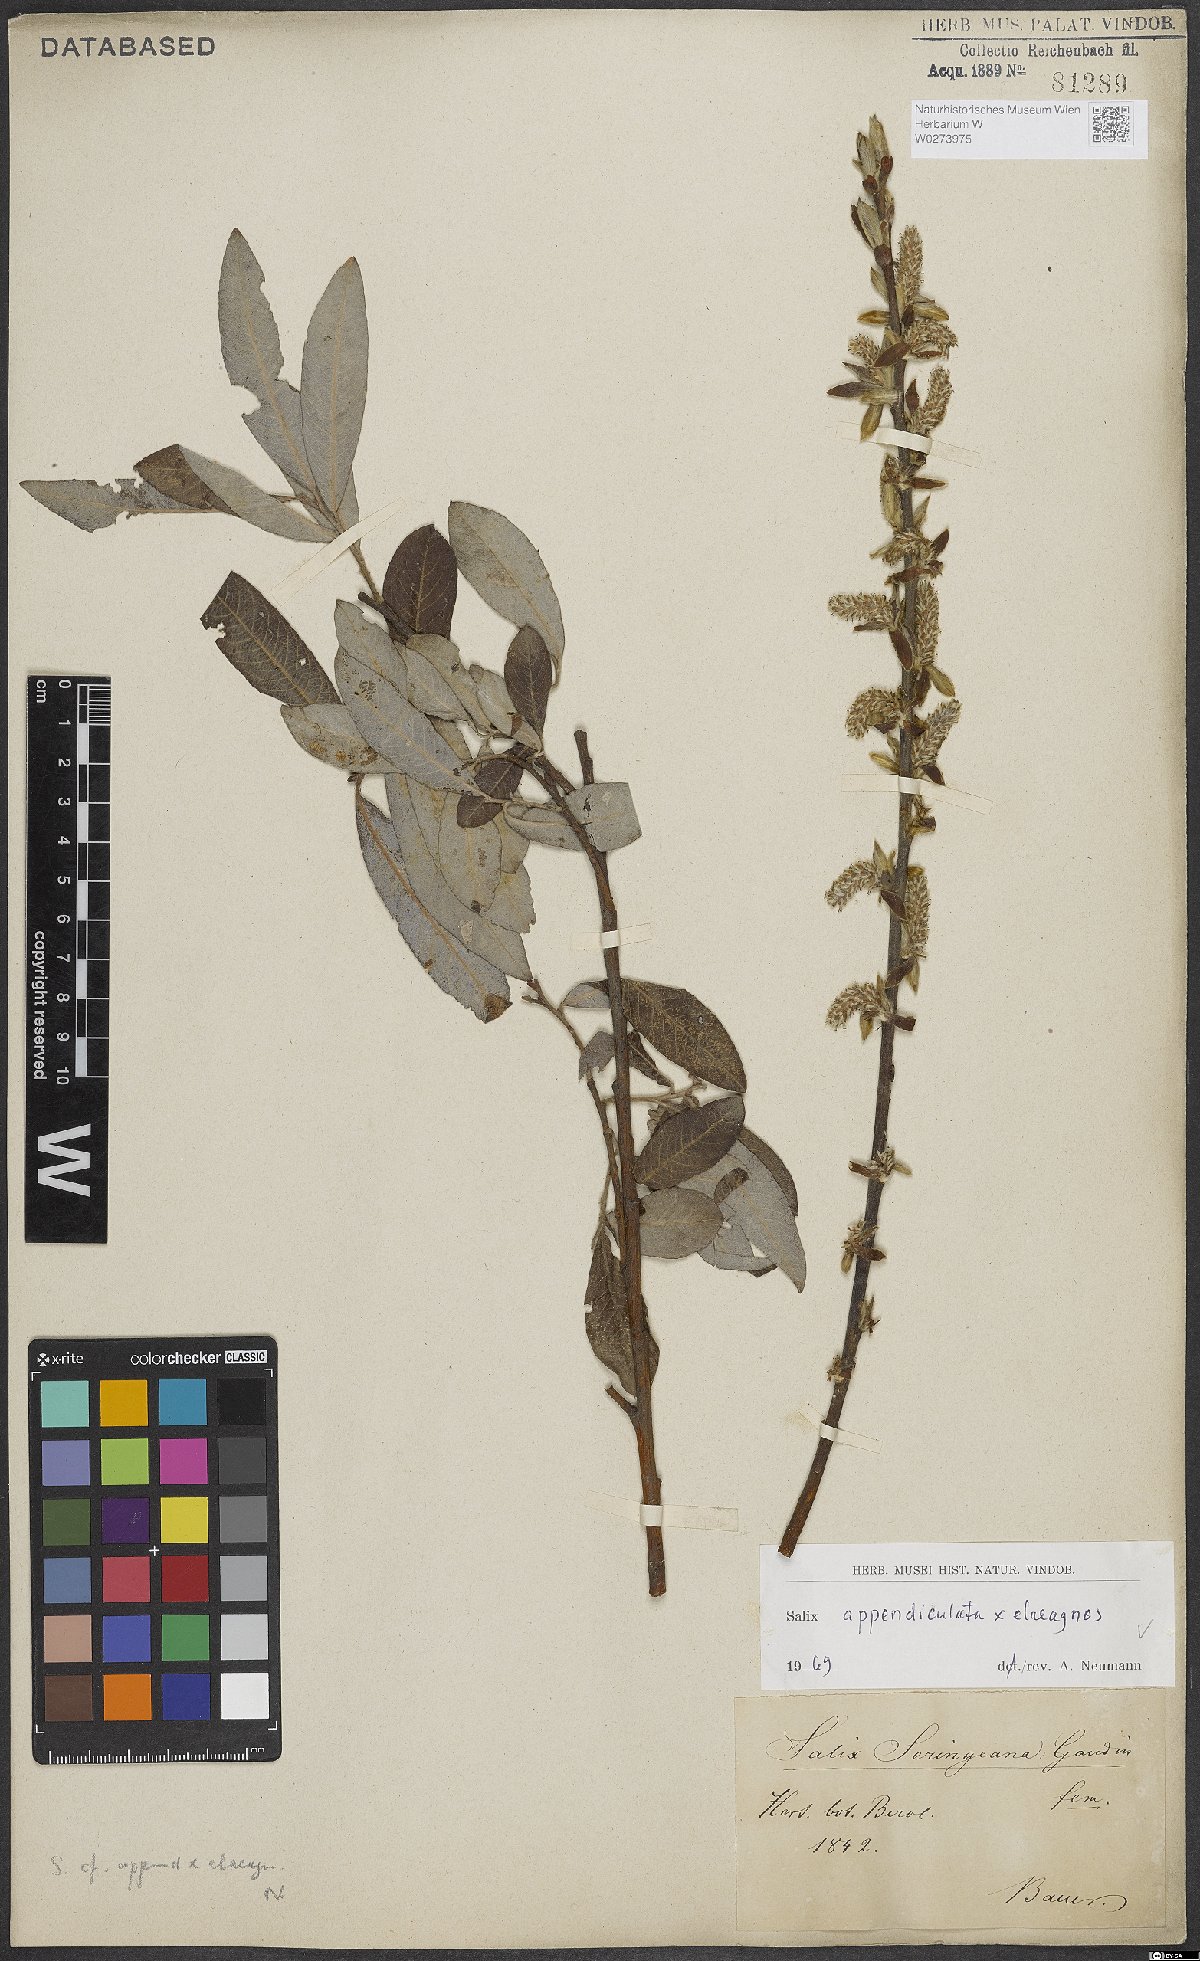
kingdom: Plantae
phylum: Tracheophyta
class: Magnoliopsida
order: Malpighiales
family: Salicaceae
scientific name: Salicaceae
